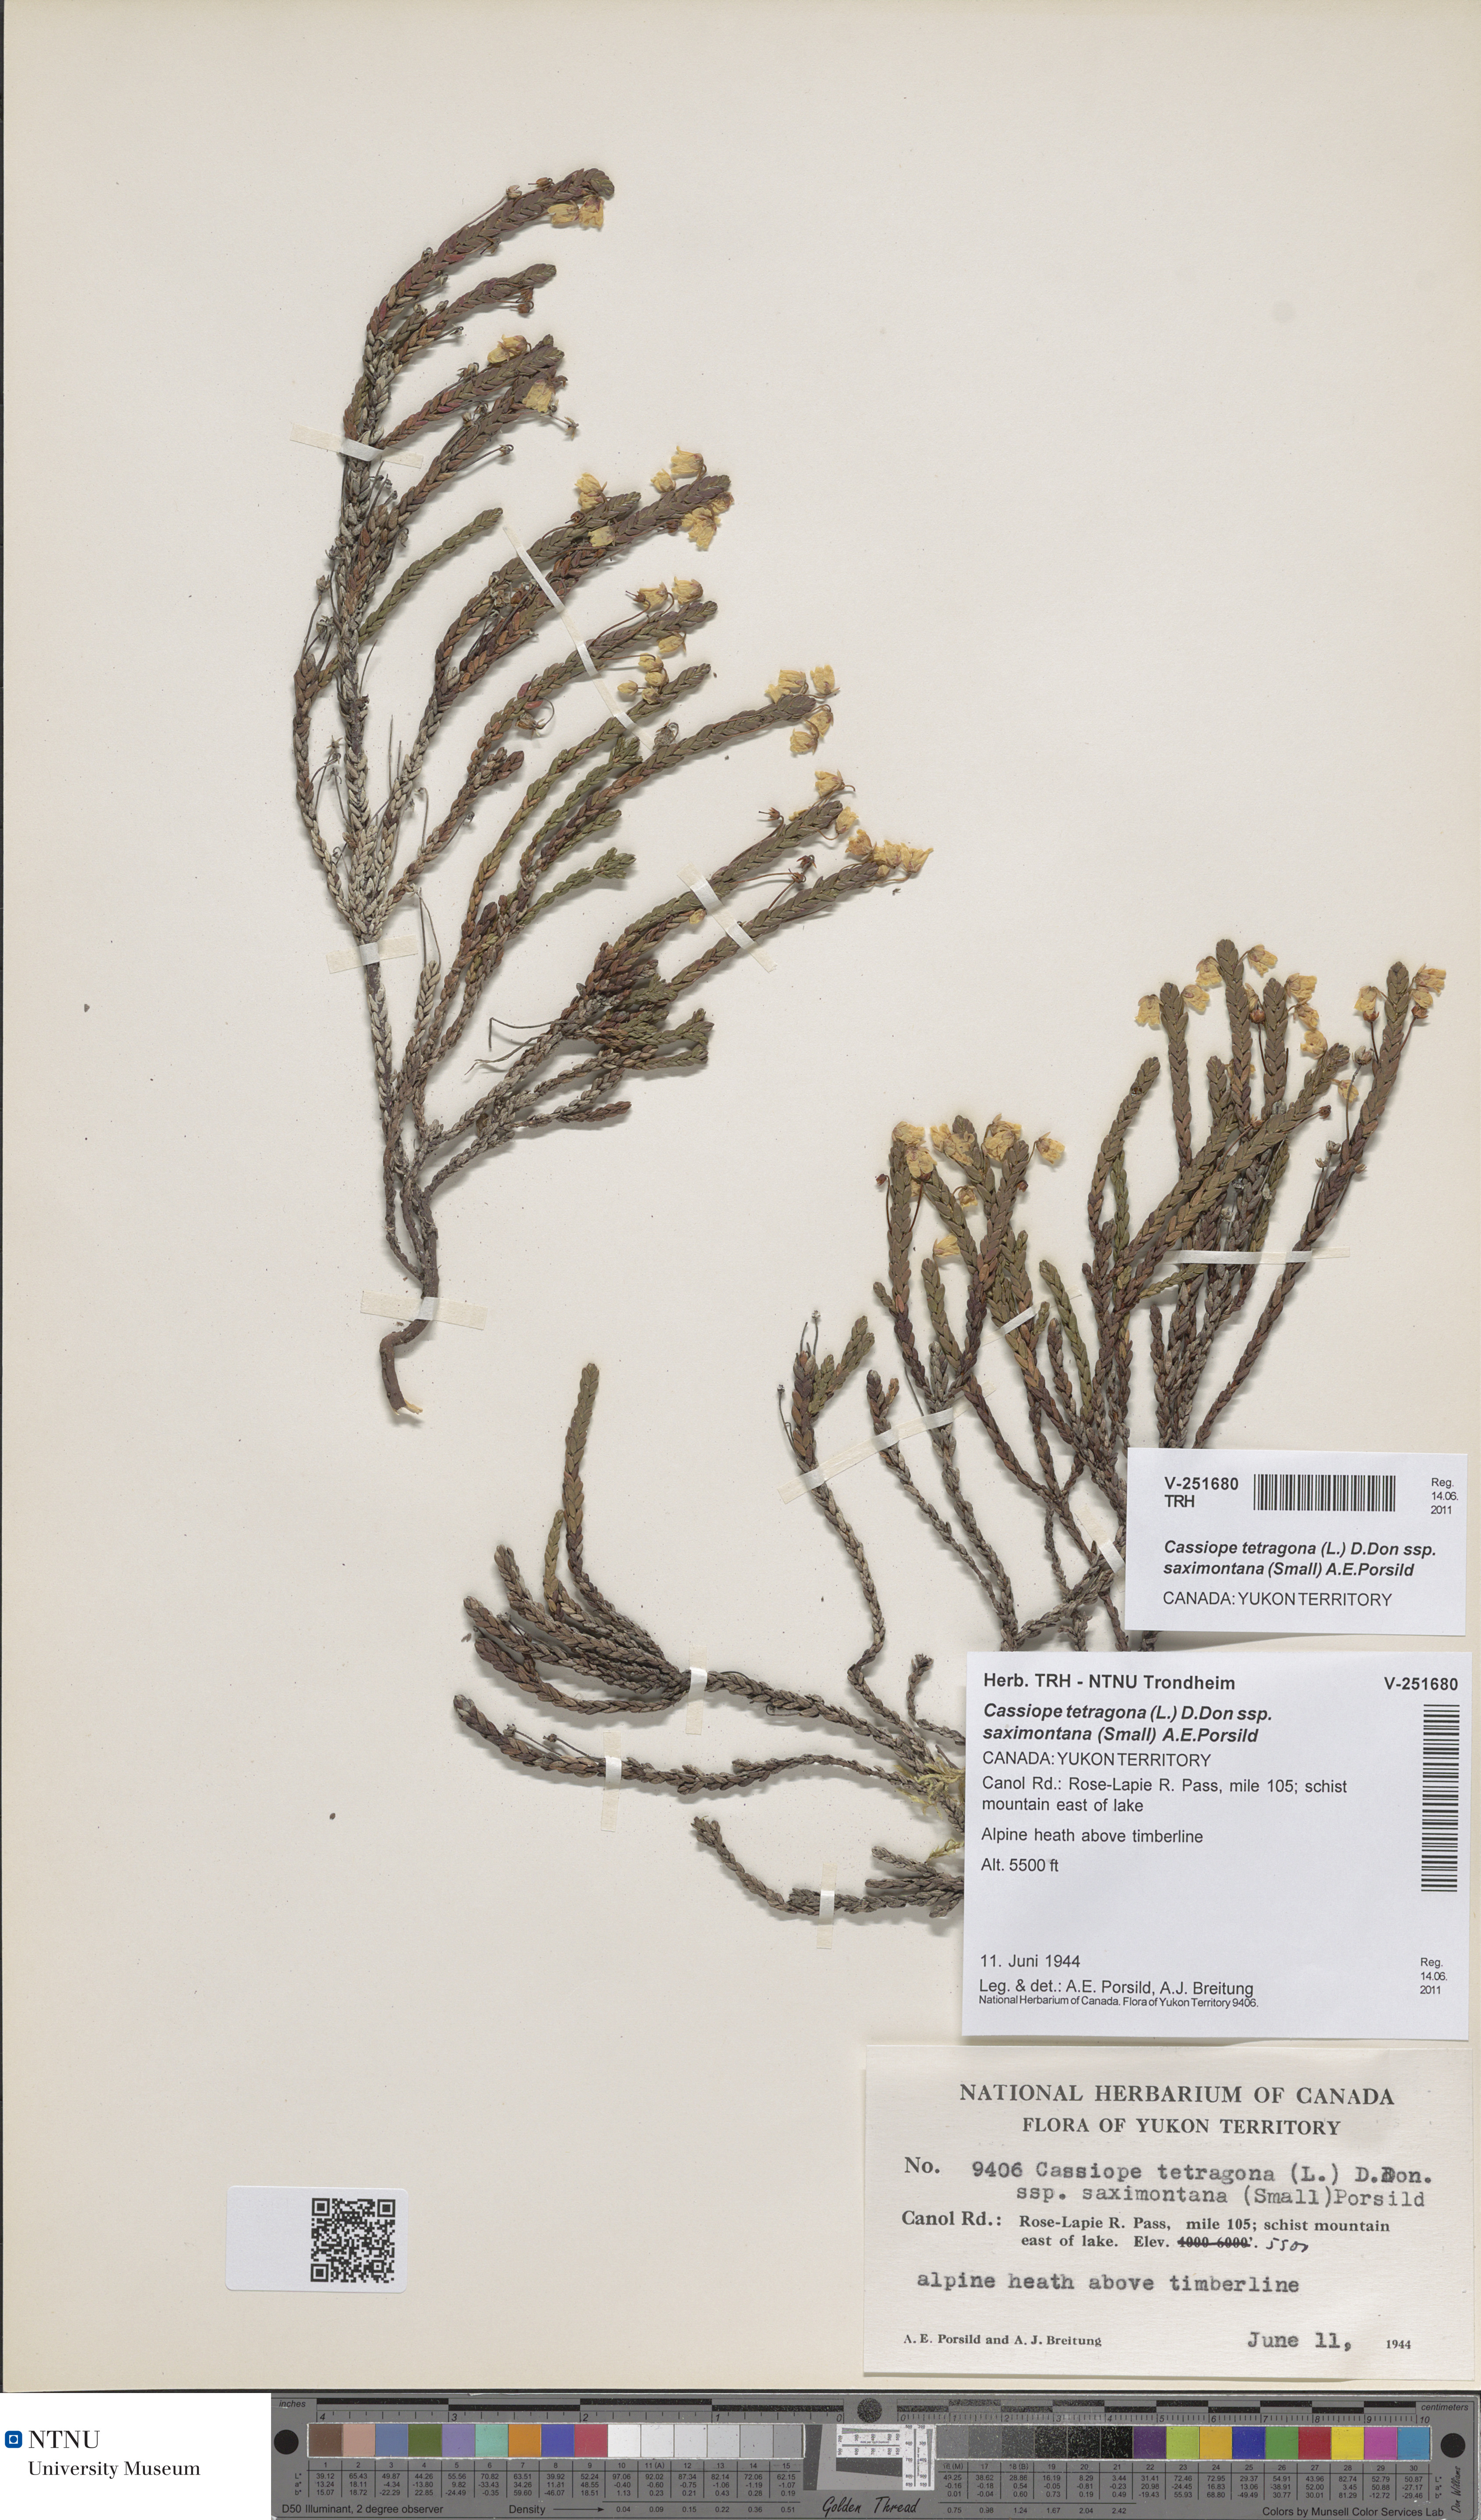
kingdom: Plantae
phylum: Tracheophyta
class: Magnoliopsida
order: Ericales
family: Ericaceae
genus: Cassiope
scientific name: Cassiope tetragona
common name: Arctic bell heather
